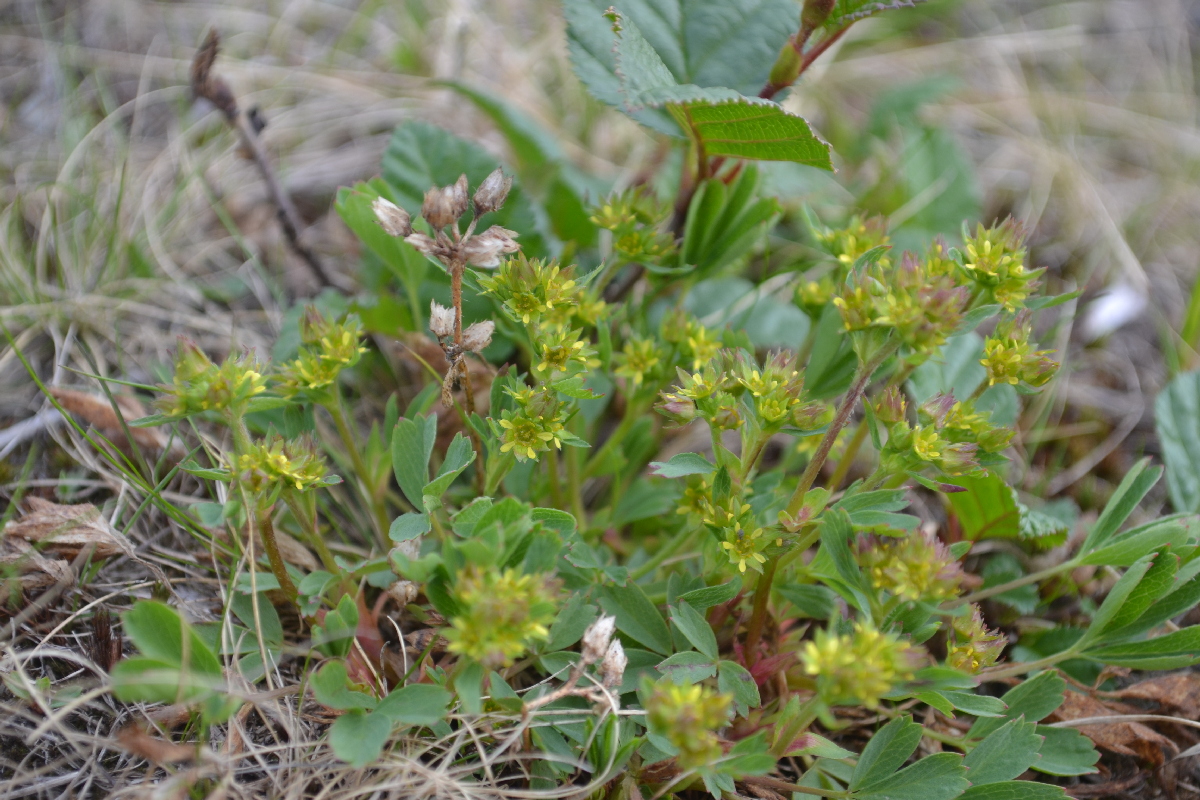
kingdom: Plantae
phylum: Tracheophyta
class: Magnoliopsida
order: Rosales
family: Rosaceae
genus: Sibbaldia
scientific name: Sibbaldia procumbens
